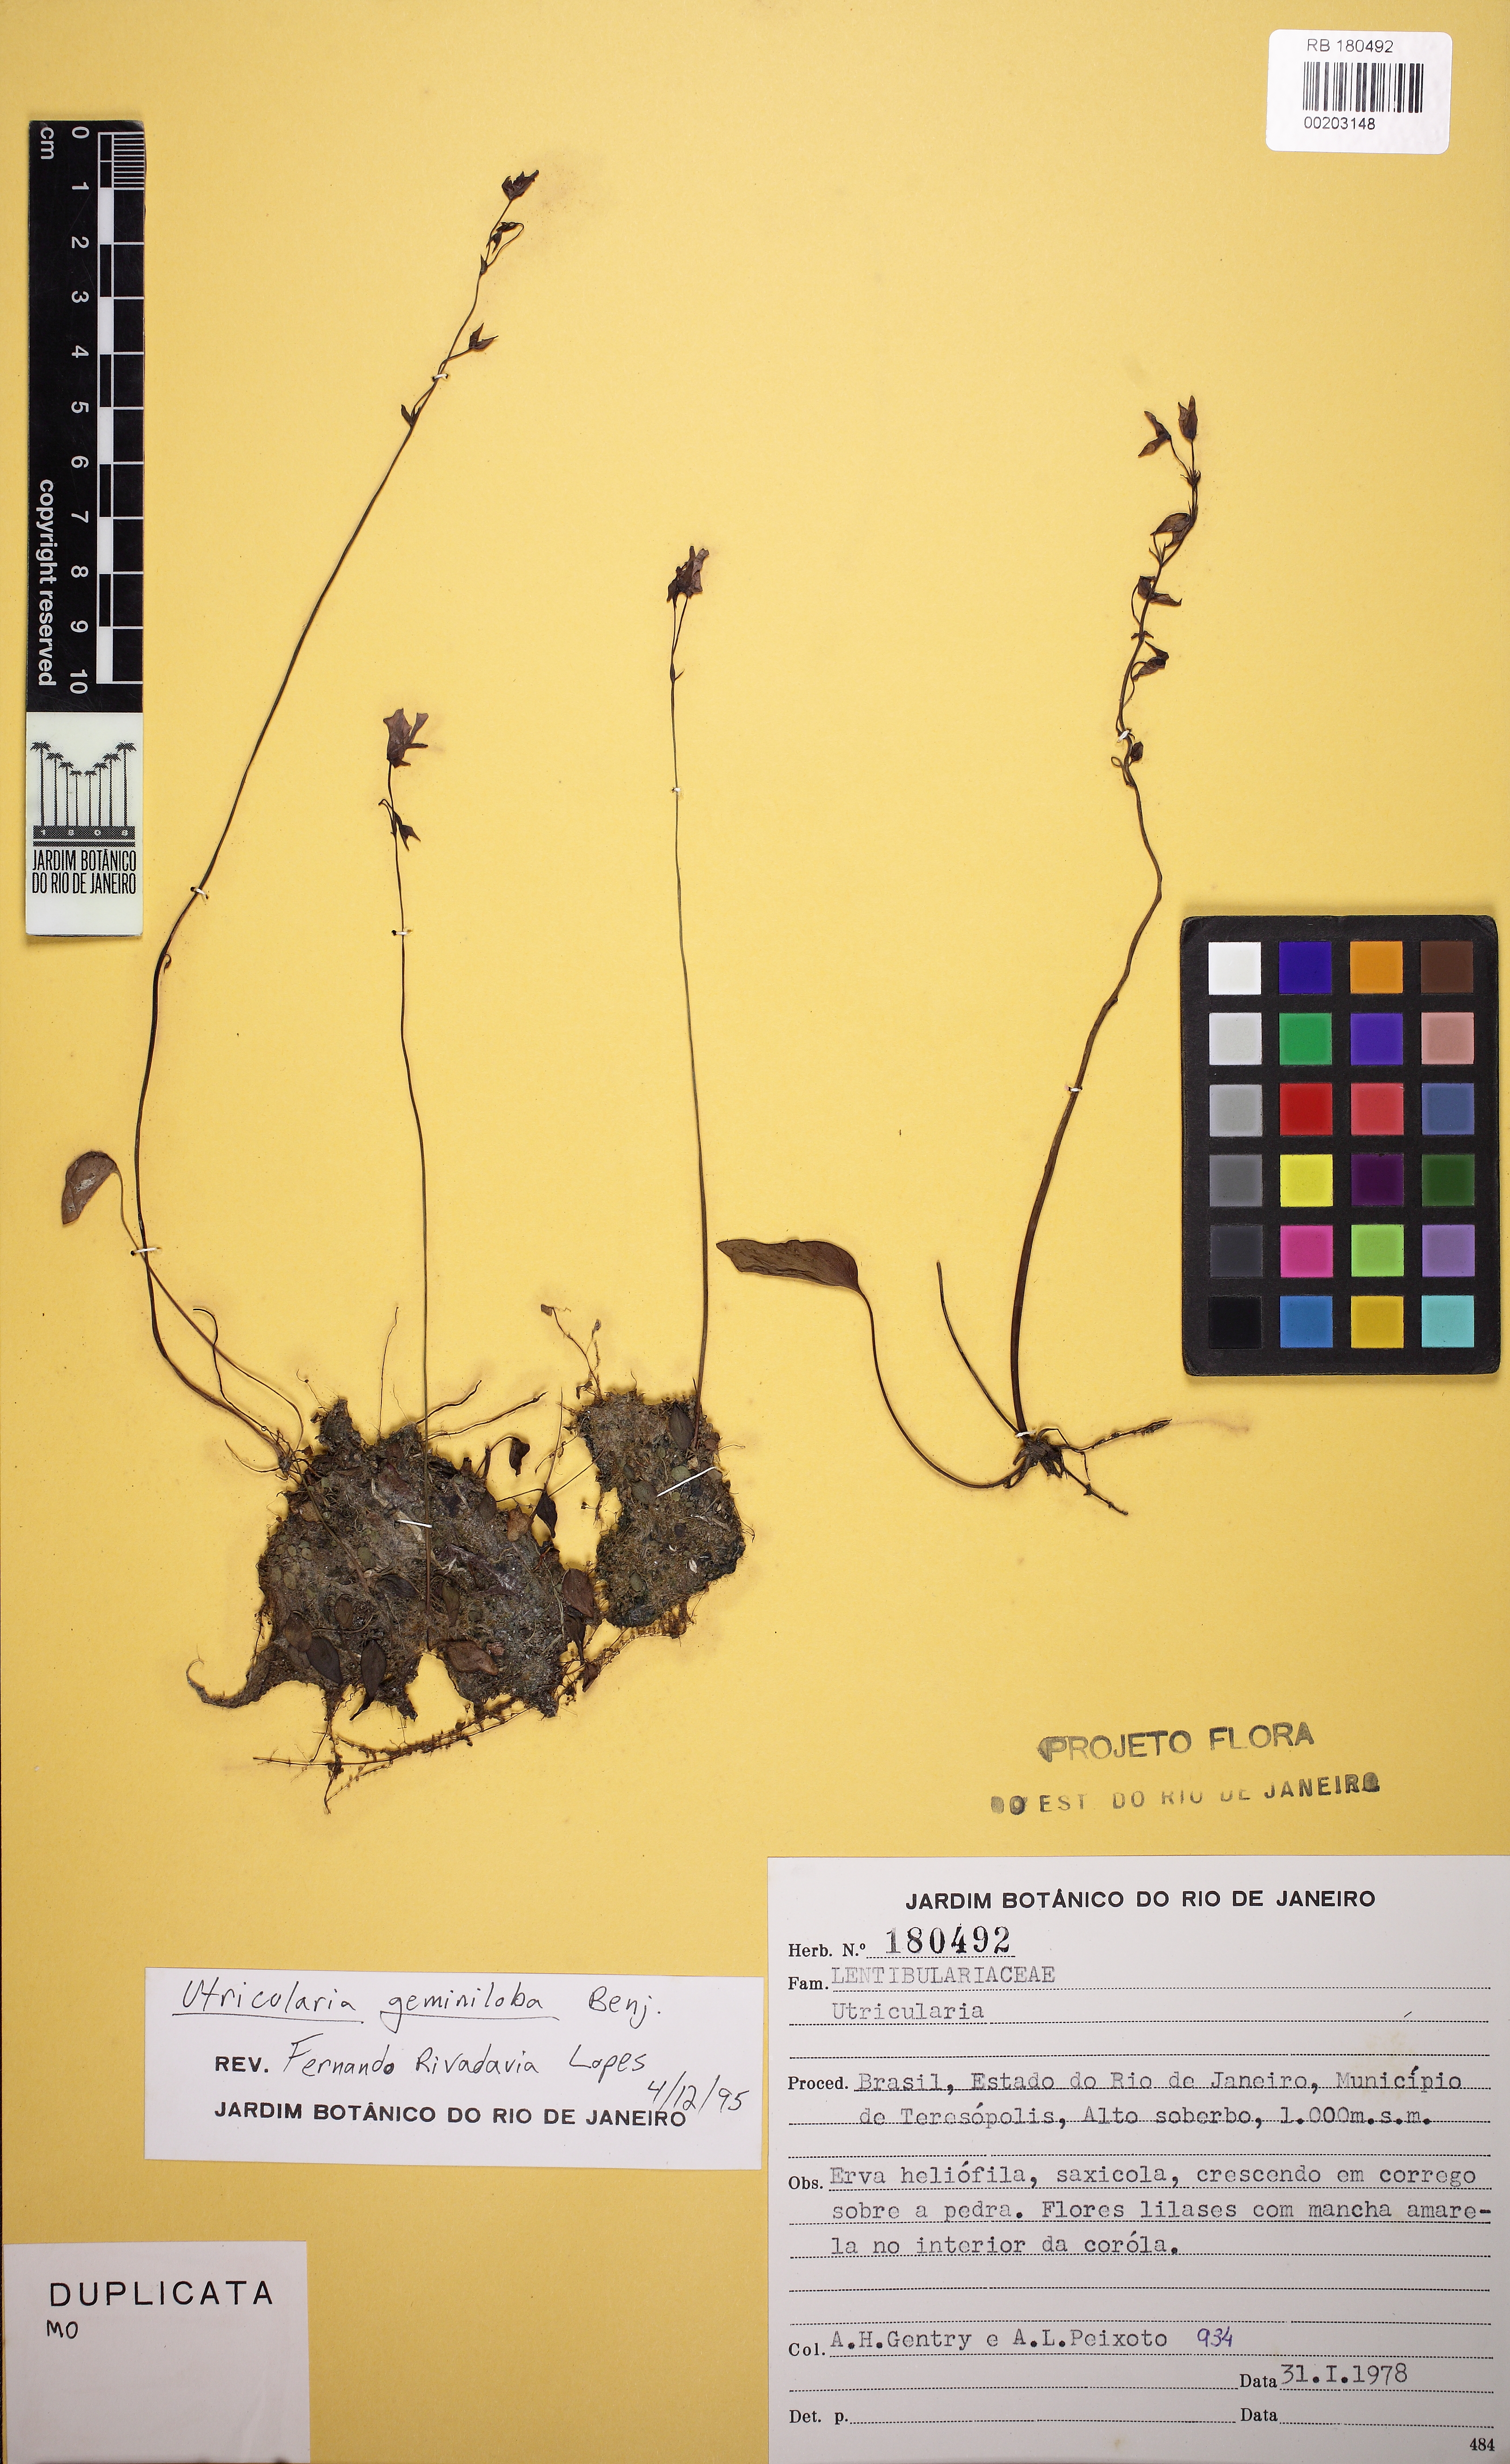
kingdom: Plantae
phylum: Tracheophyta
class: Magnoliopsida
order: Lamiales
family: Lentibulariaceae
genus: Utricularia
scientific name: Utricularia geminiloba
